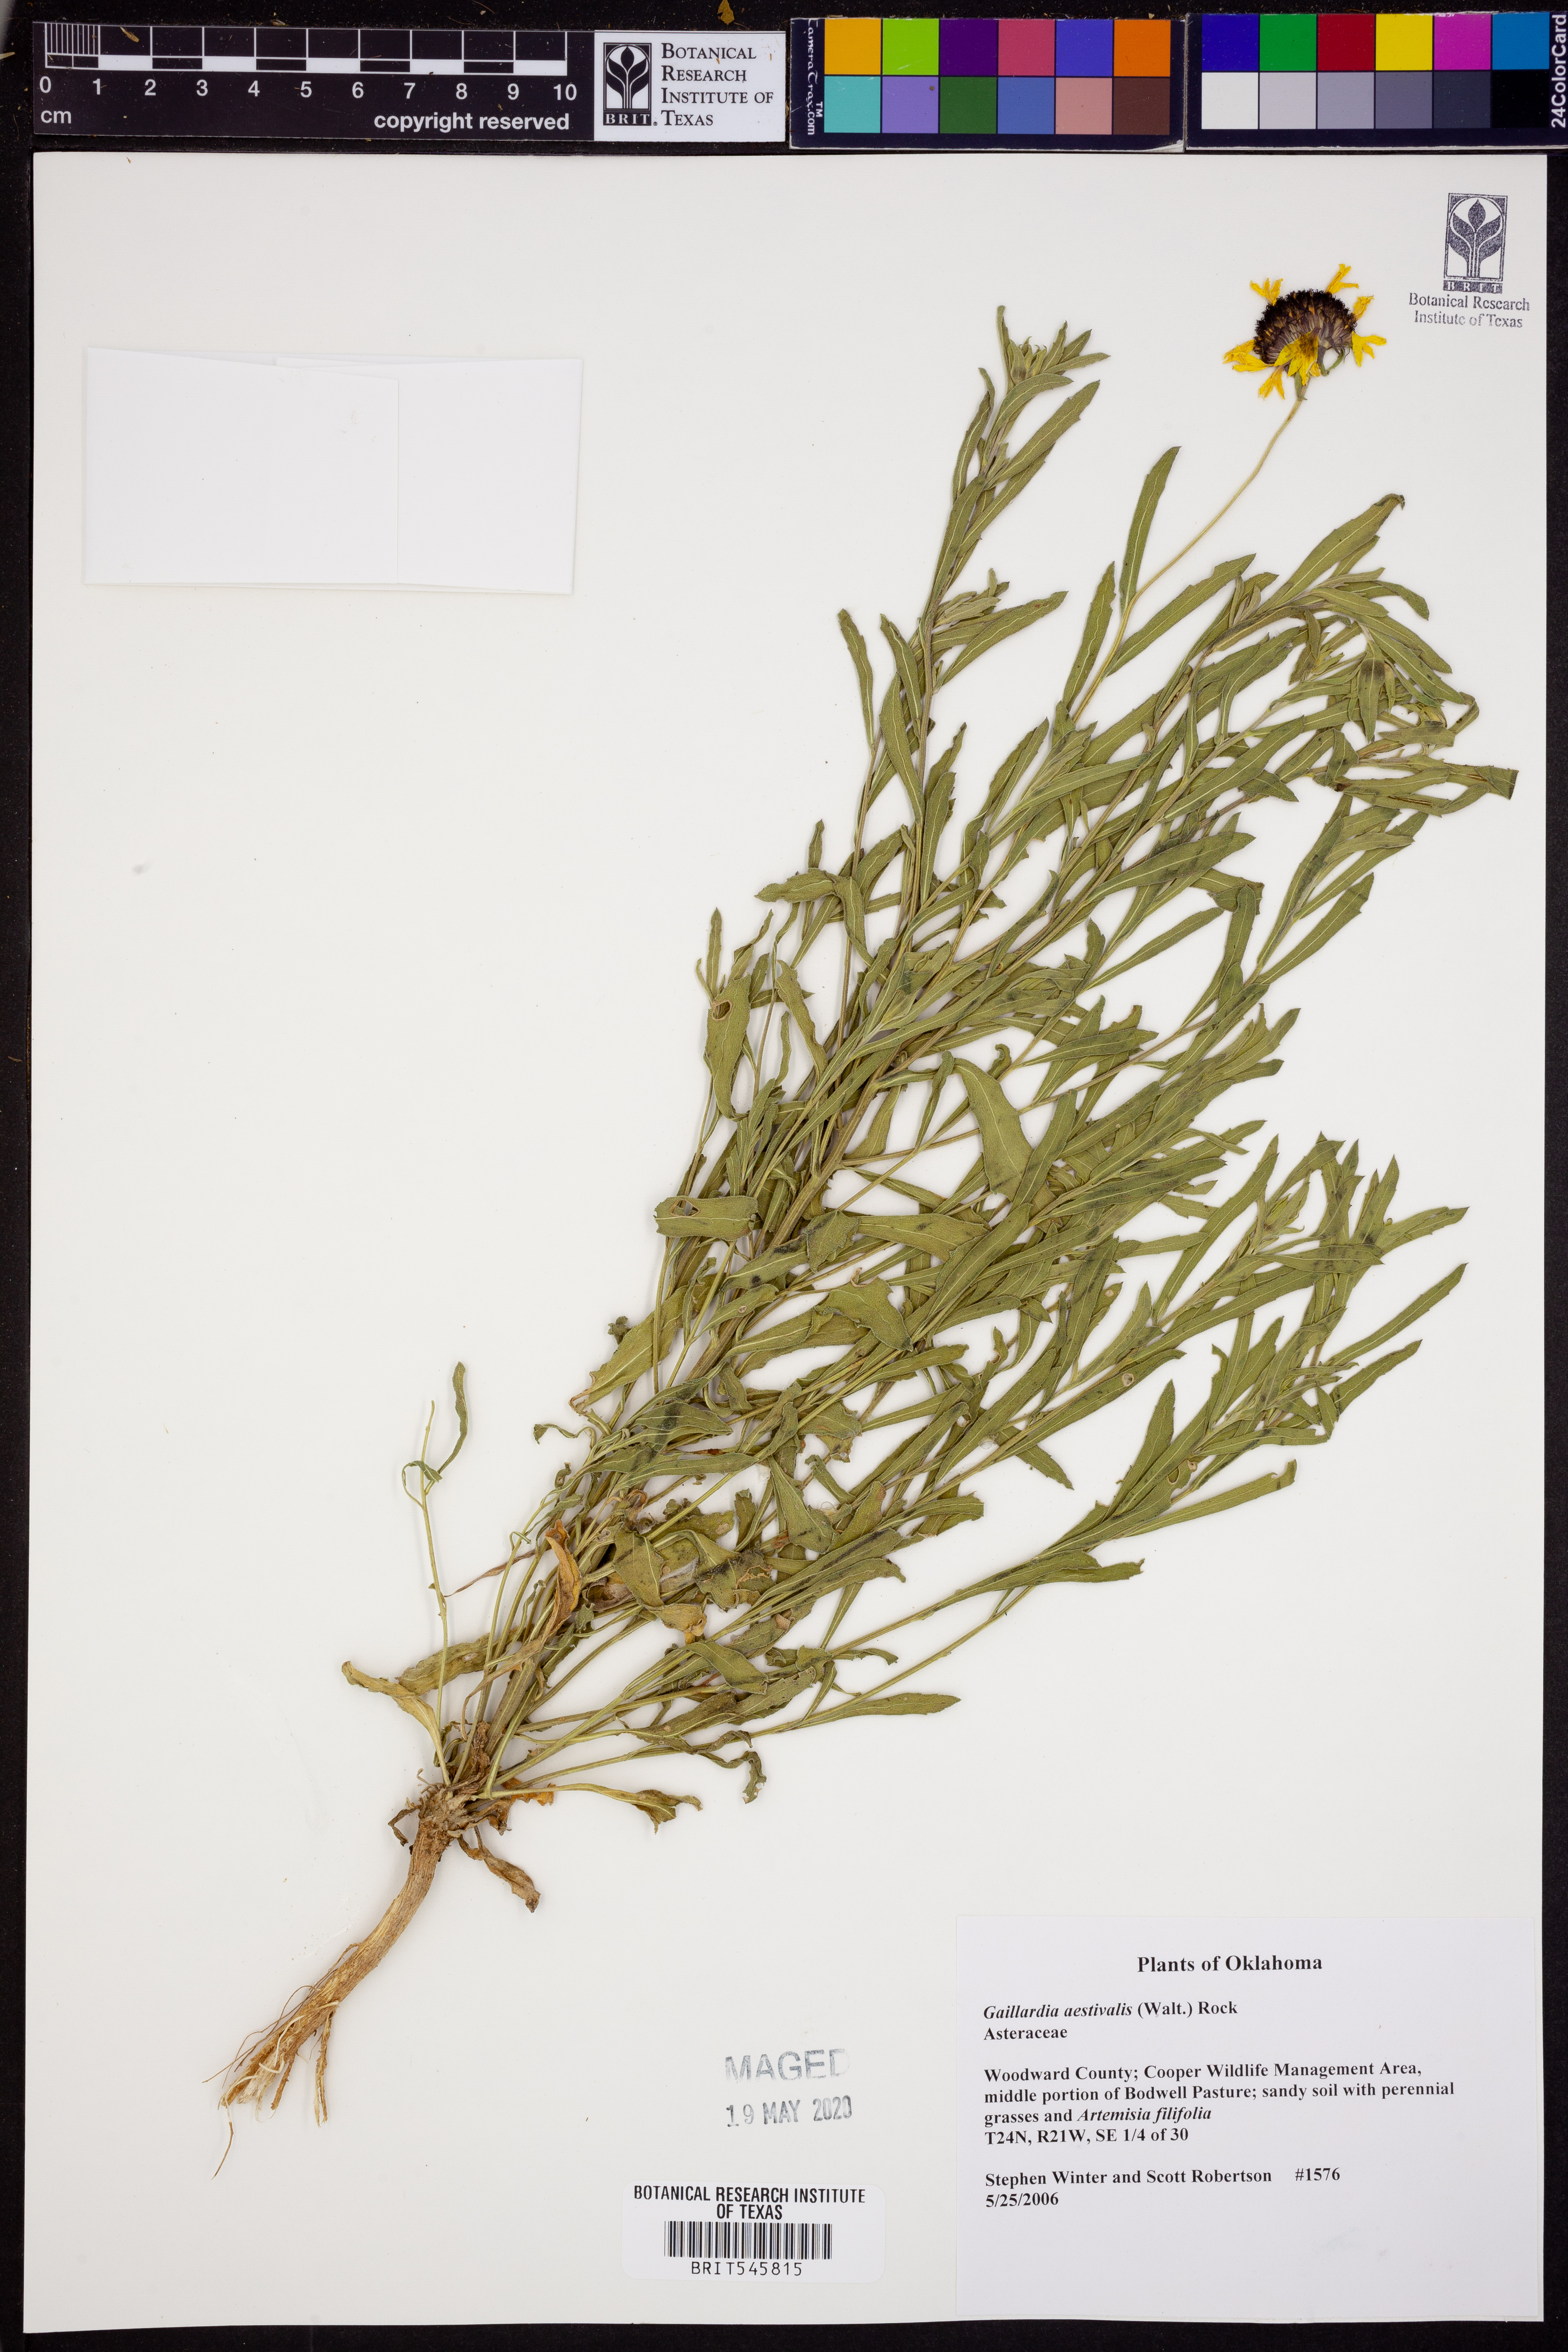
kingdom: Plantae
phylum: Tracheophyta
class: Magnoliopsida
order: Asterales
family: Asteraceae
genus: Gaillardia
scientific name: Gaillardia aestivalis
